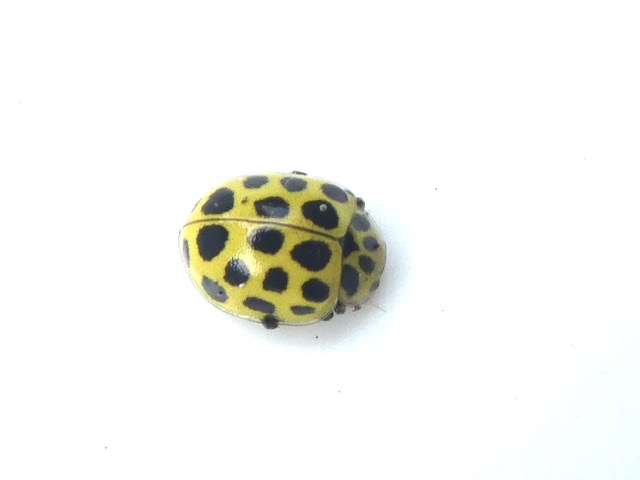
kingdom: Animalia
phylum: Arthropoda
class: Insecta
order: Coleoptera
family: Coccinellidae
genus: Psyllobora
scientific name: Psyllobora vigintiduopunctata
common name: Toogtyveplettet mariehøne
